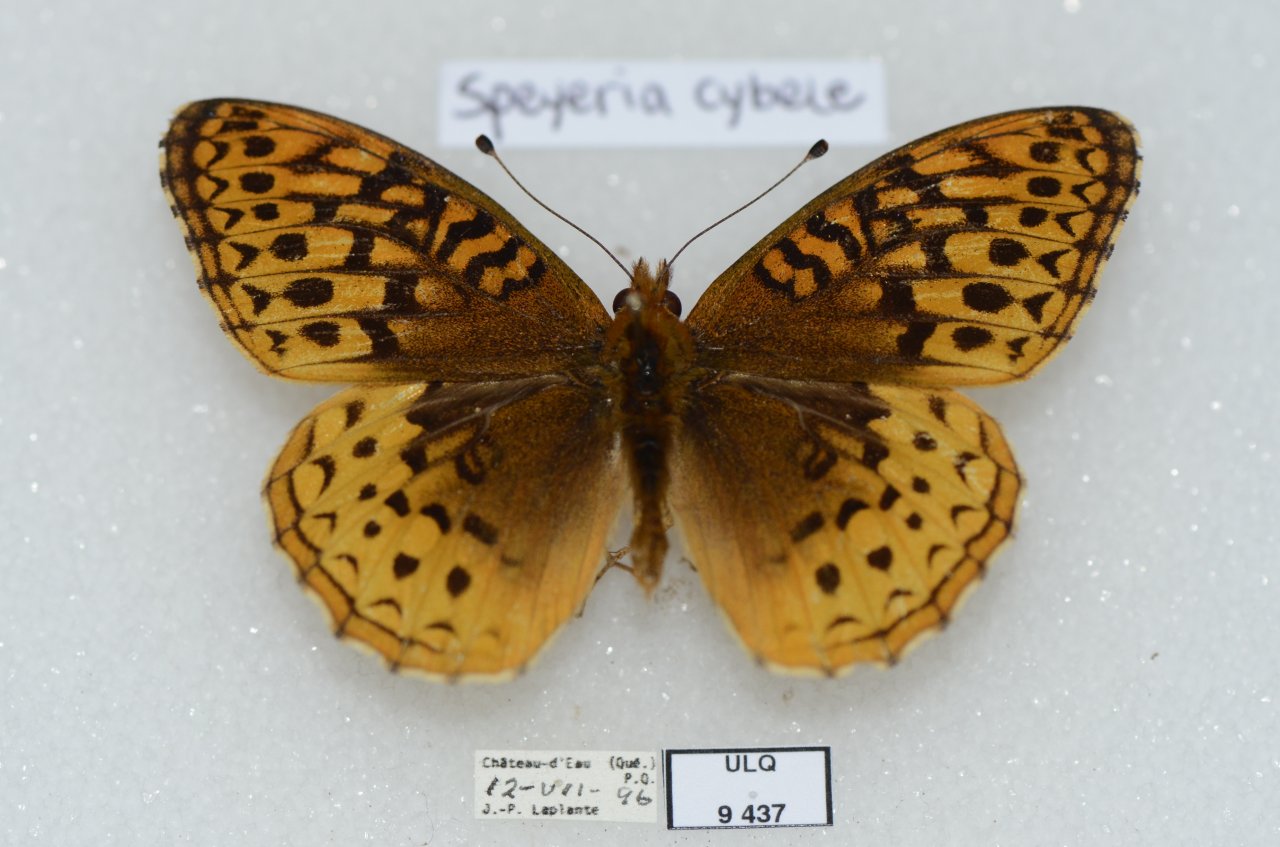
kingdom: Animalia
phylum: Arthropoda
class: Insecta
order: Lepidoptera
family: Nymphalidae
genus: Speyeria
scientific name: Speyeria cybele
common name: Great Spangled Fritillary
